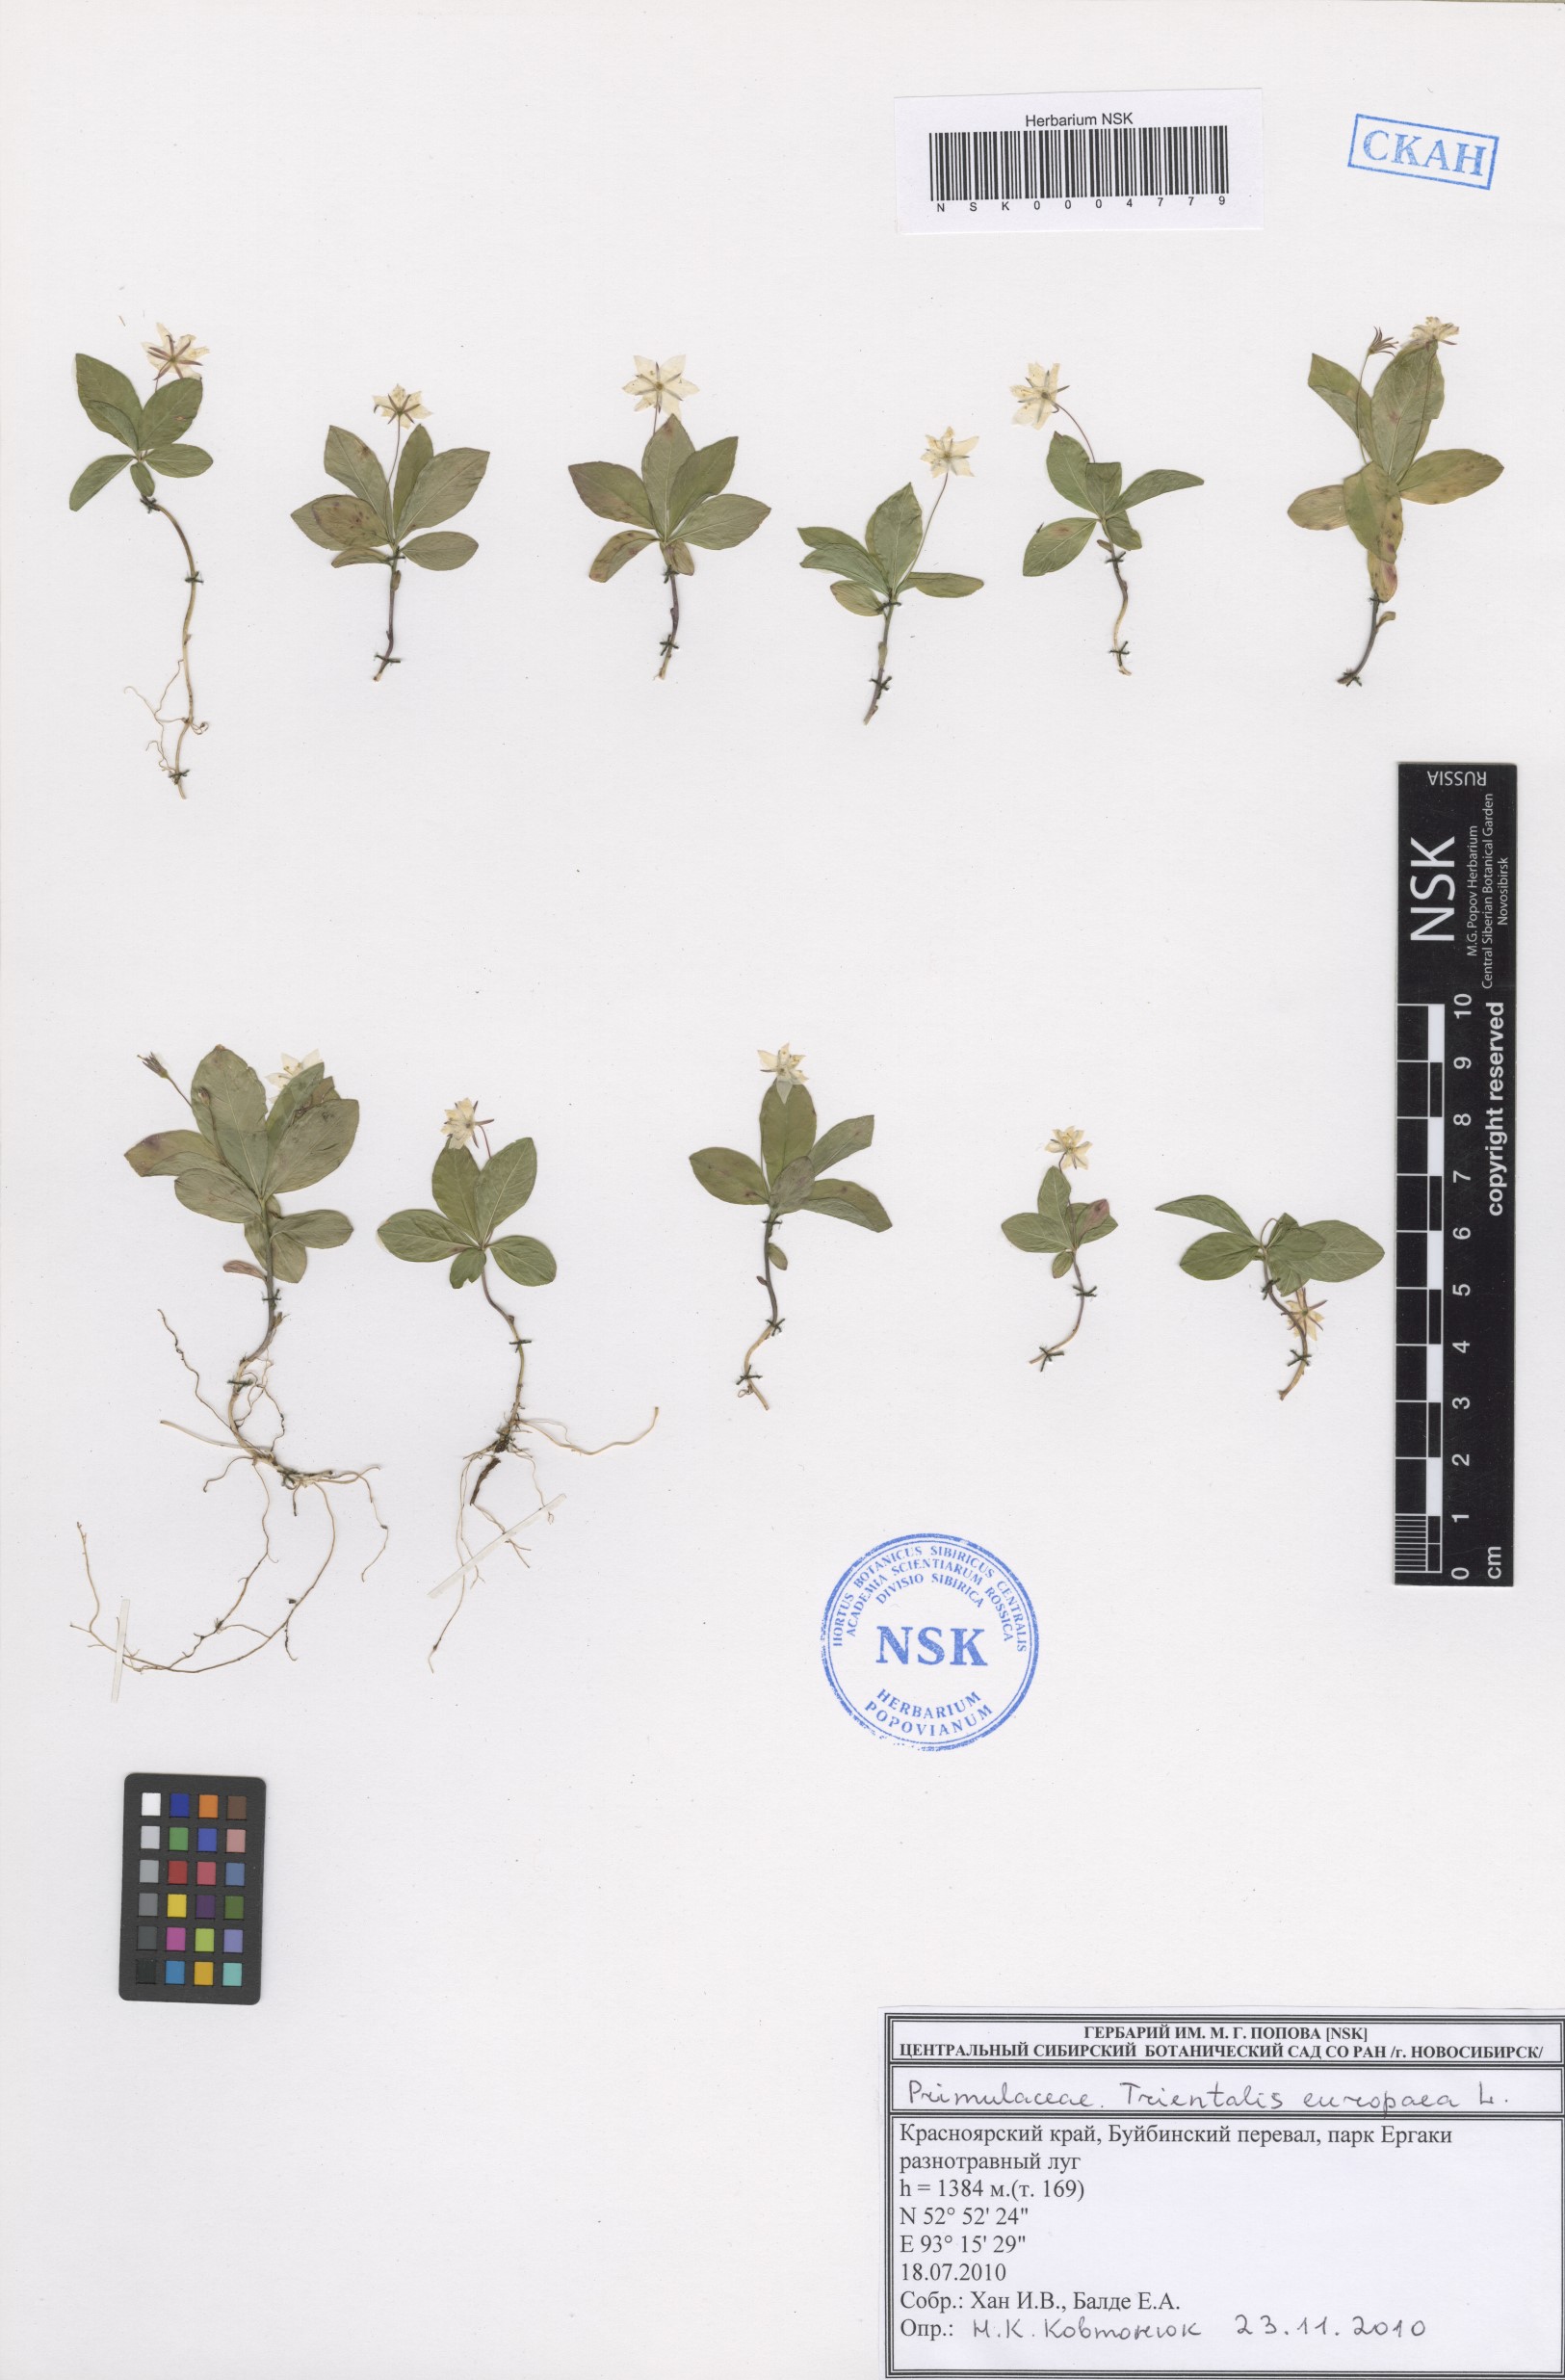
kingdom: Plantae
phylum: Tracheophyta
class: Magnoliopsida
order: Ericales
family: Primulaceae
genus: Lysimachia
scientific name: Lysimachia europaea
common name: Arctic starflower
